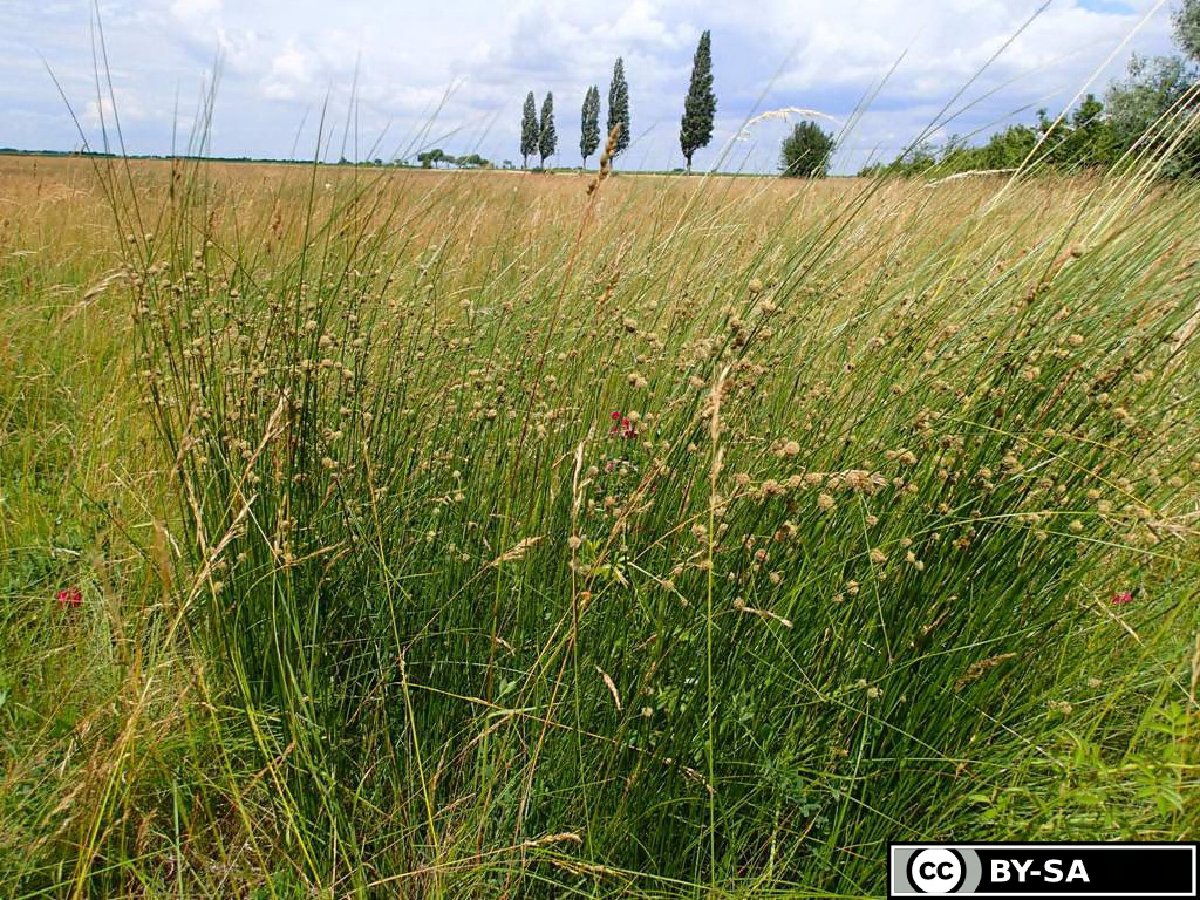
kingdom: Plantae
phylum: Tracheophyta
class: Magnoliopsida
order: Boraginales
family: Boraginaceae
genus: Onosma
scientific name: Onosma arenaria
